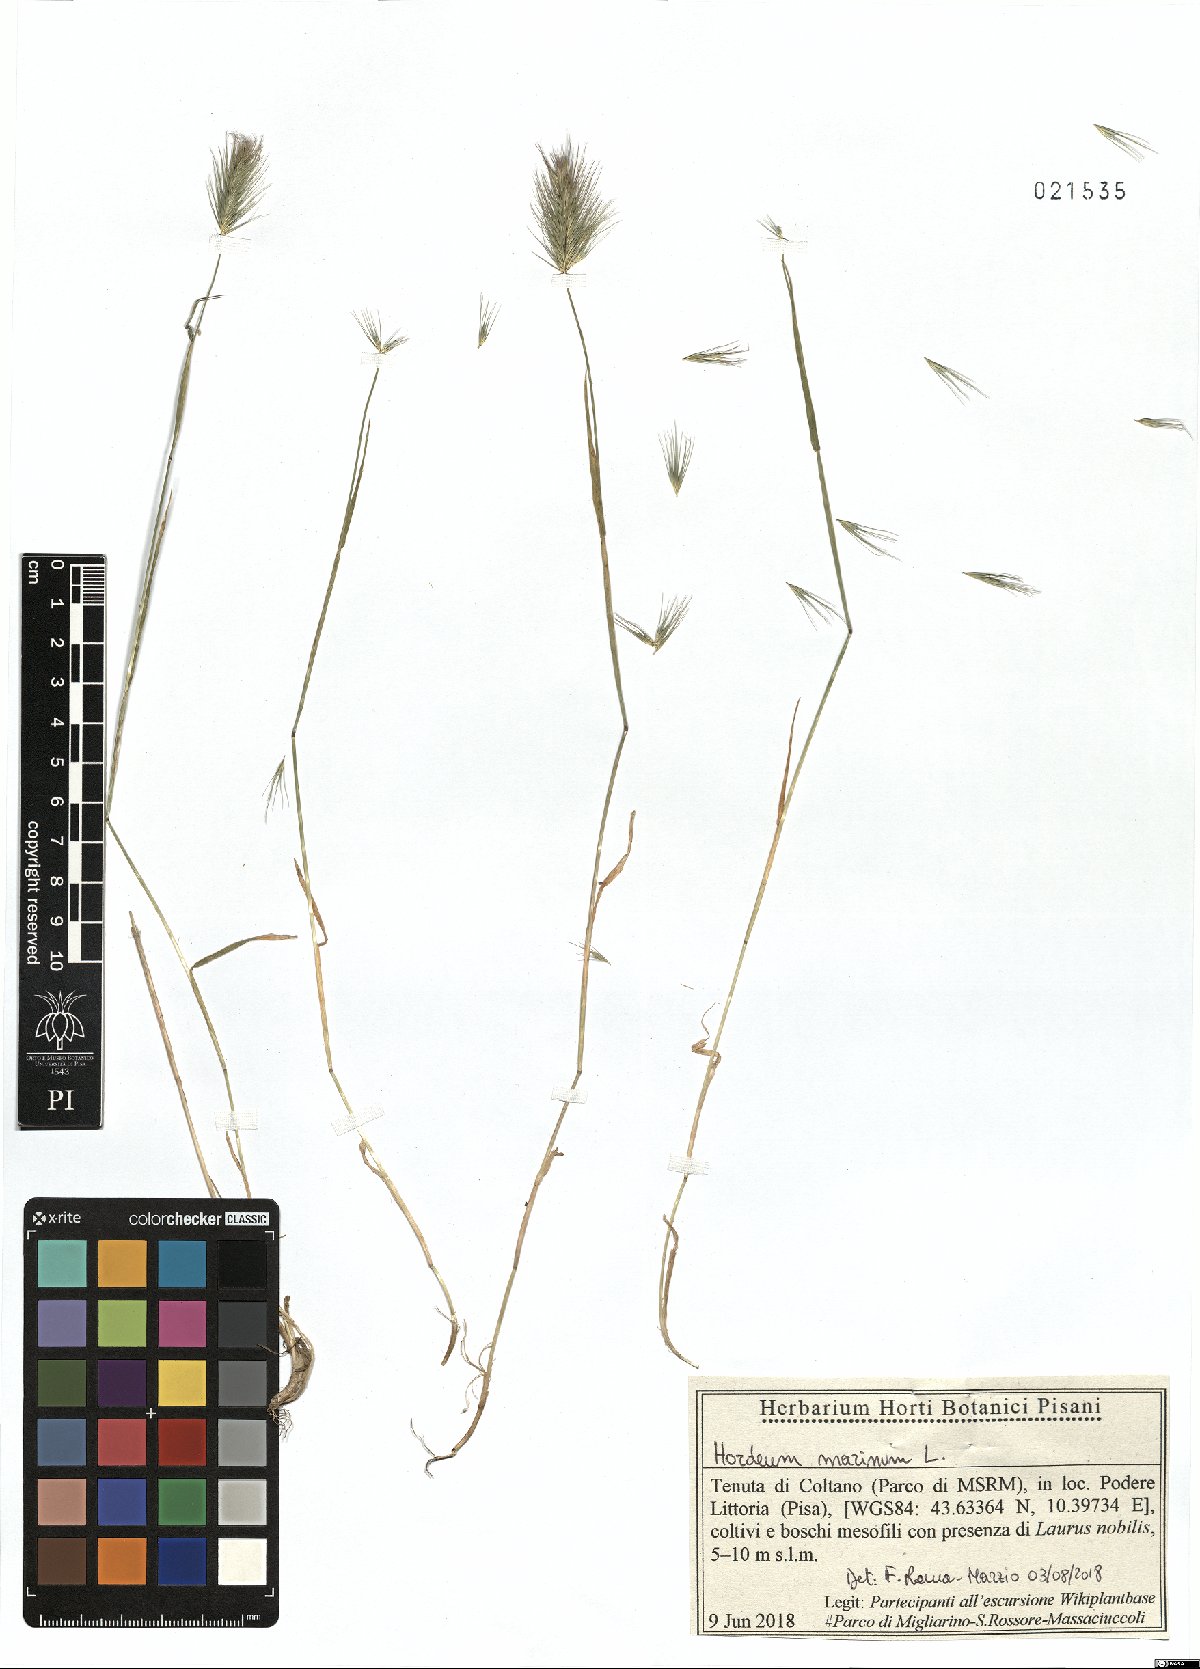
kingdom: Plantae
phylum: Tracheophyta
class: Liliopsida
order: Poales
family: Poaceae
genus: Hordeum
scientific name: Hordeum marinum
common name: Sea barley
